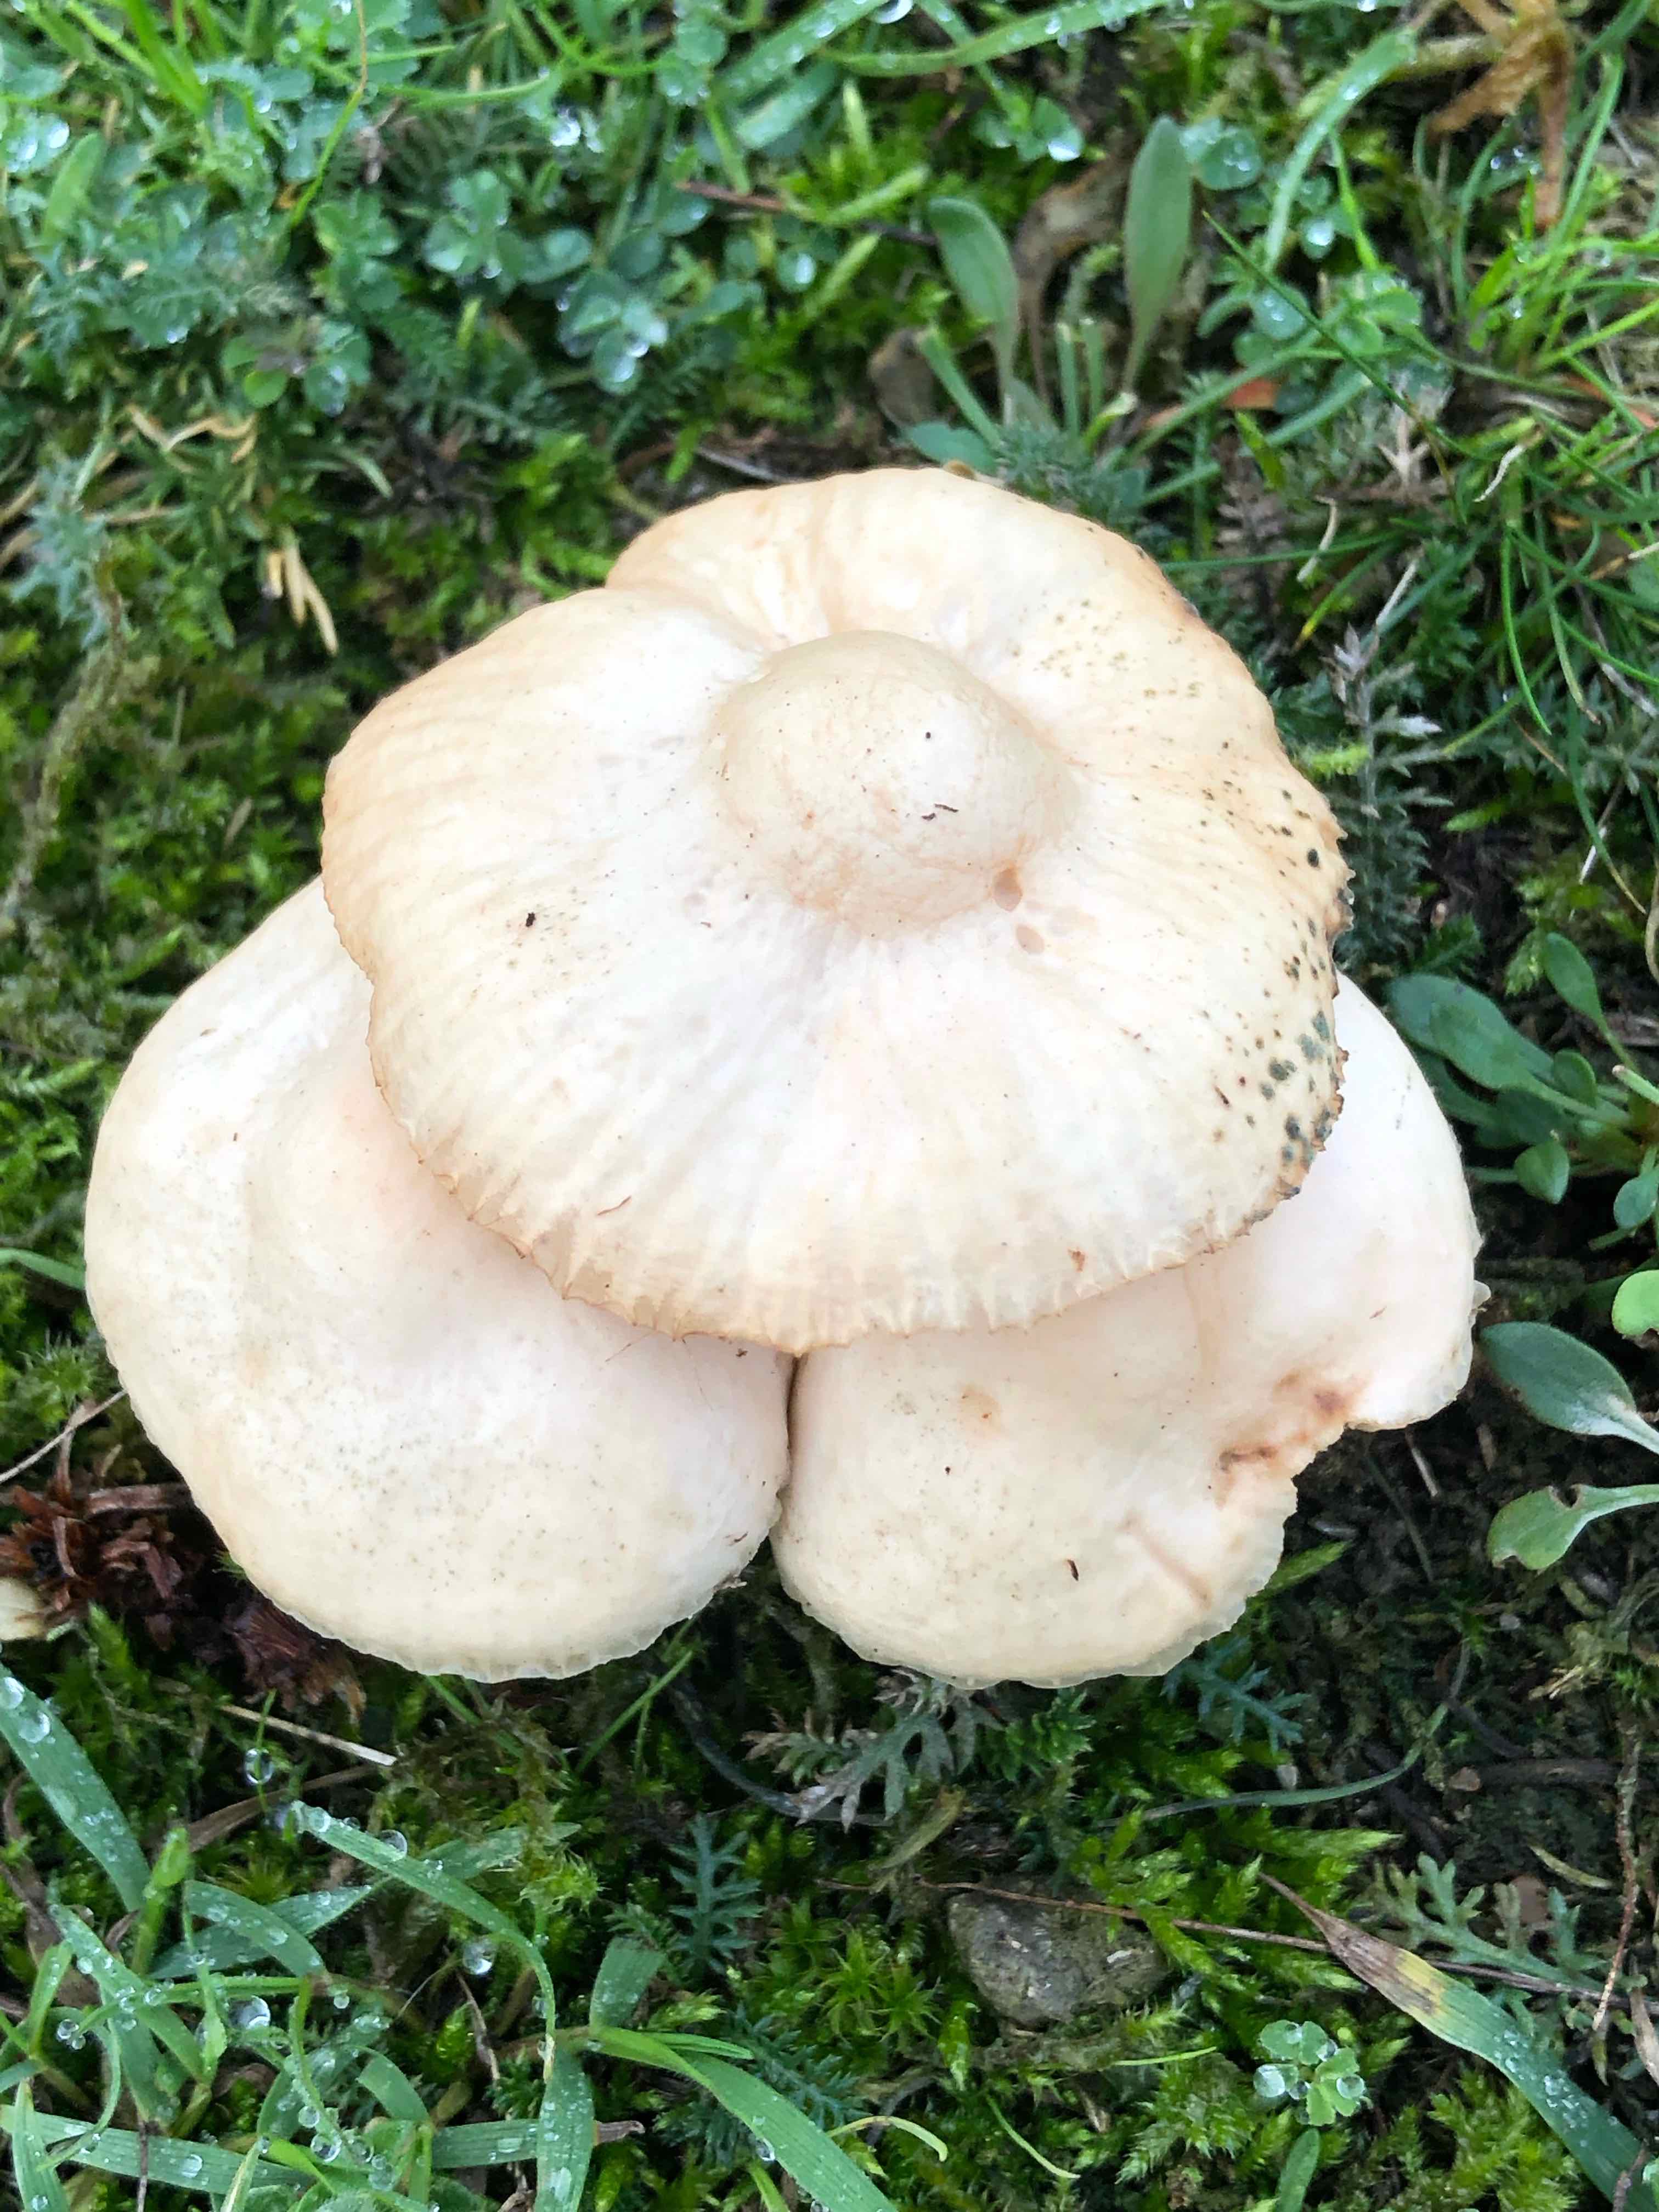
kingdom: Fungi
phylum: Basidiomycota
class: Agaricomycetes
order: Agaricales
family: Marasmiaceae
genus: Marasmius
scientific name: Marasmius oreades
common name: elledans-bruskhat
